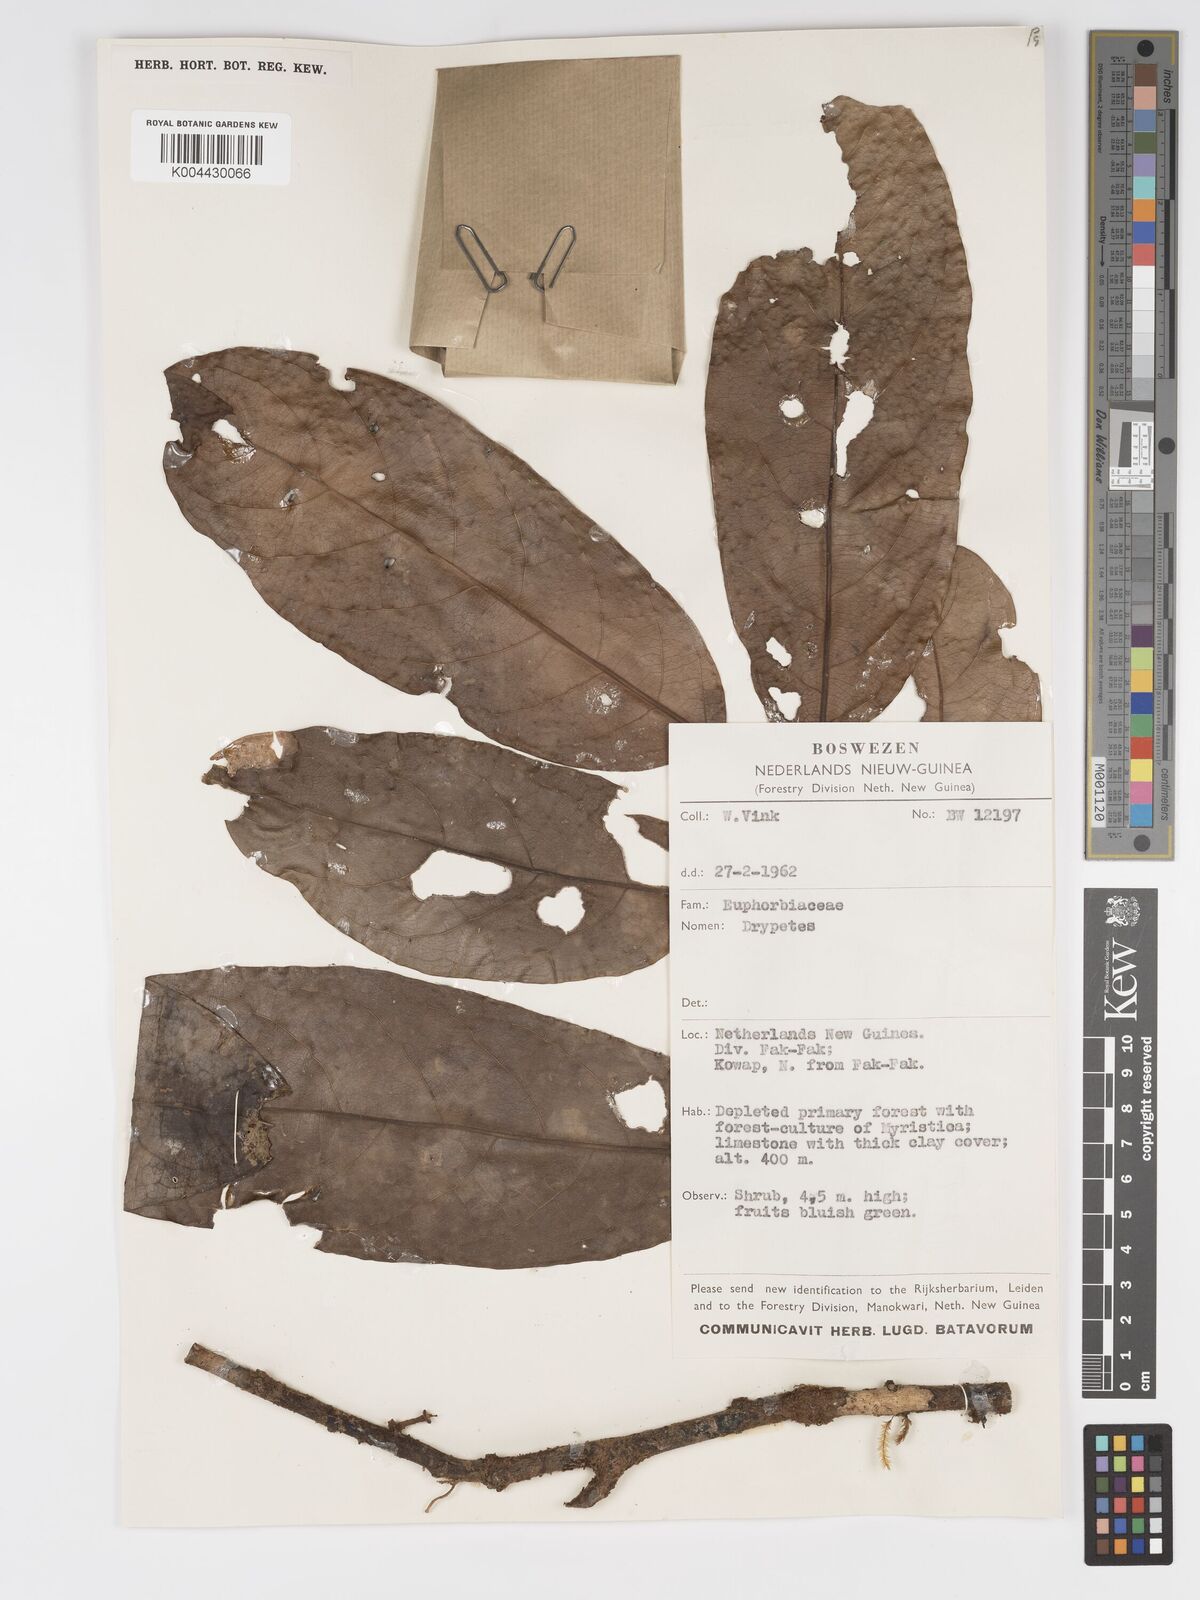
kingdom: Plantae
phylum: Tracheophyta
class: Magnoliopsida
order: Malpighiales
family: Putranjivaceae
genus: Drypetes
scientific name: Drypetes longifolia
